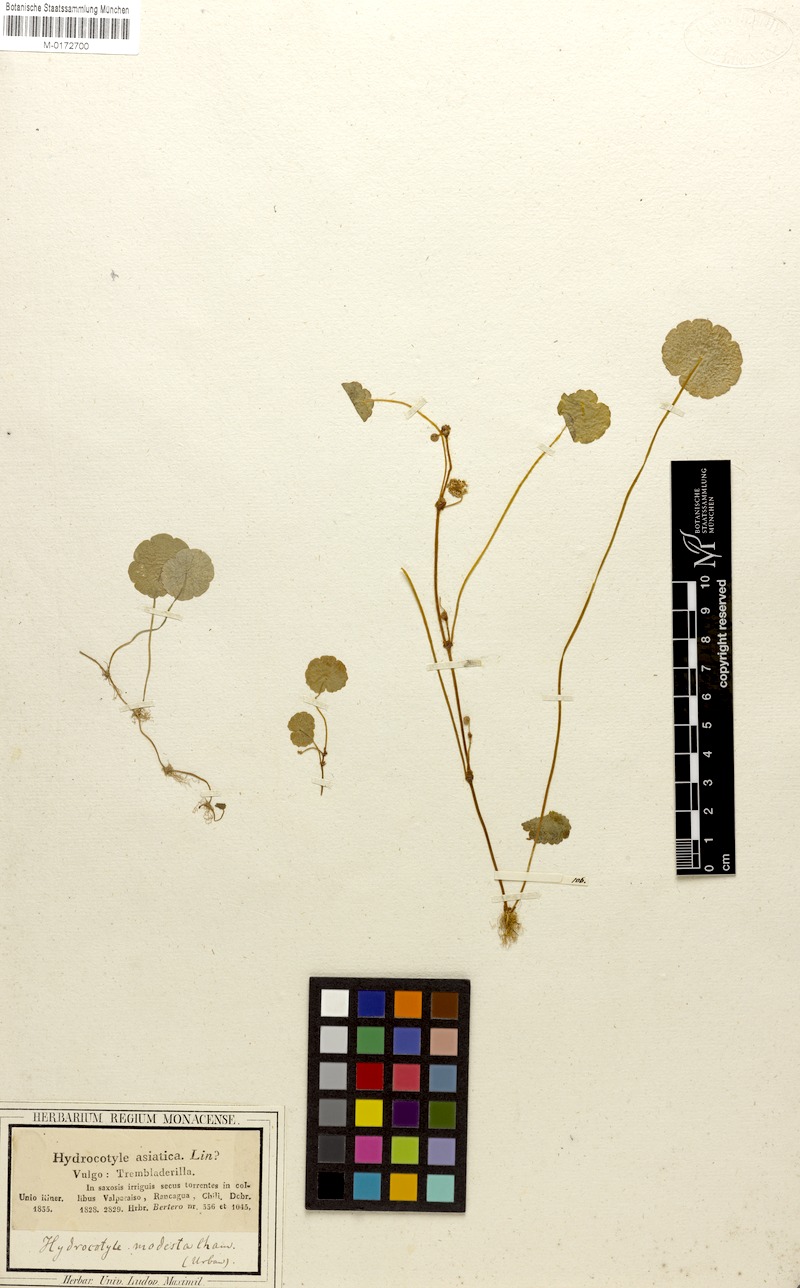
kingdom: Plantae
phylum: Tracheophyta
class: Magnoliopsida
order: Apiales
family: Araliaceae
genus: Hydrocotyle
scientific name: Hydrocotyle modesta
